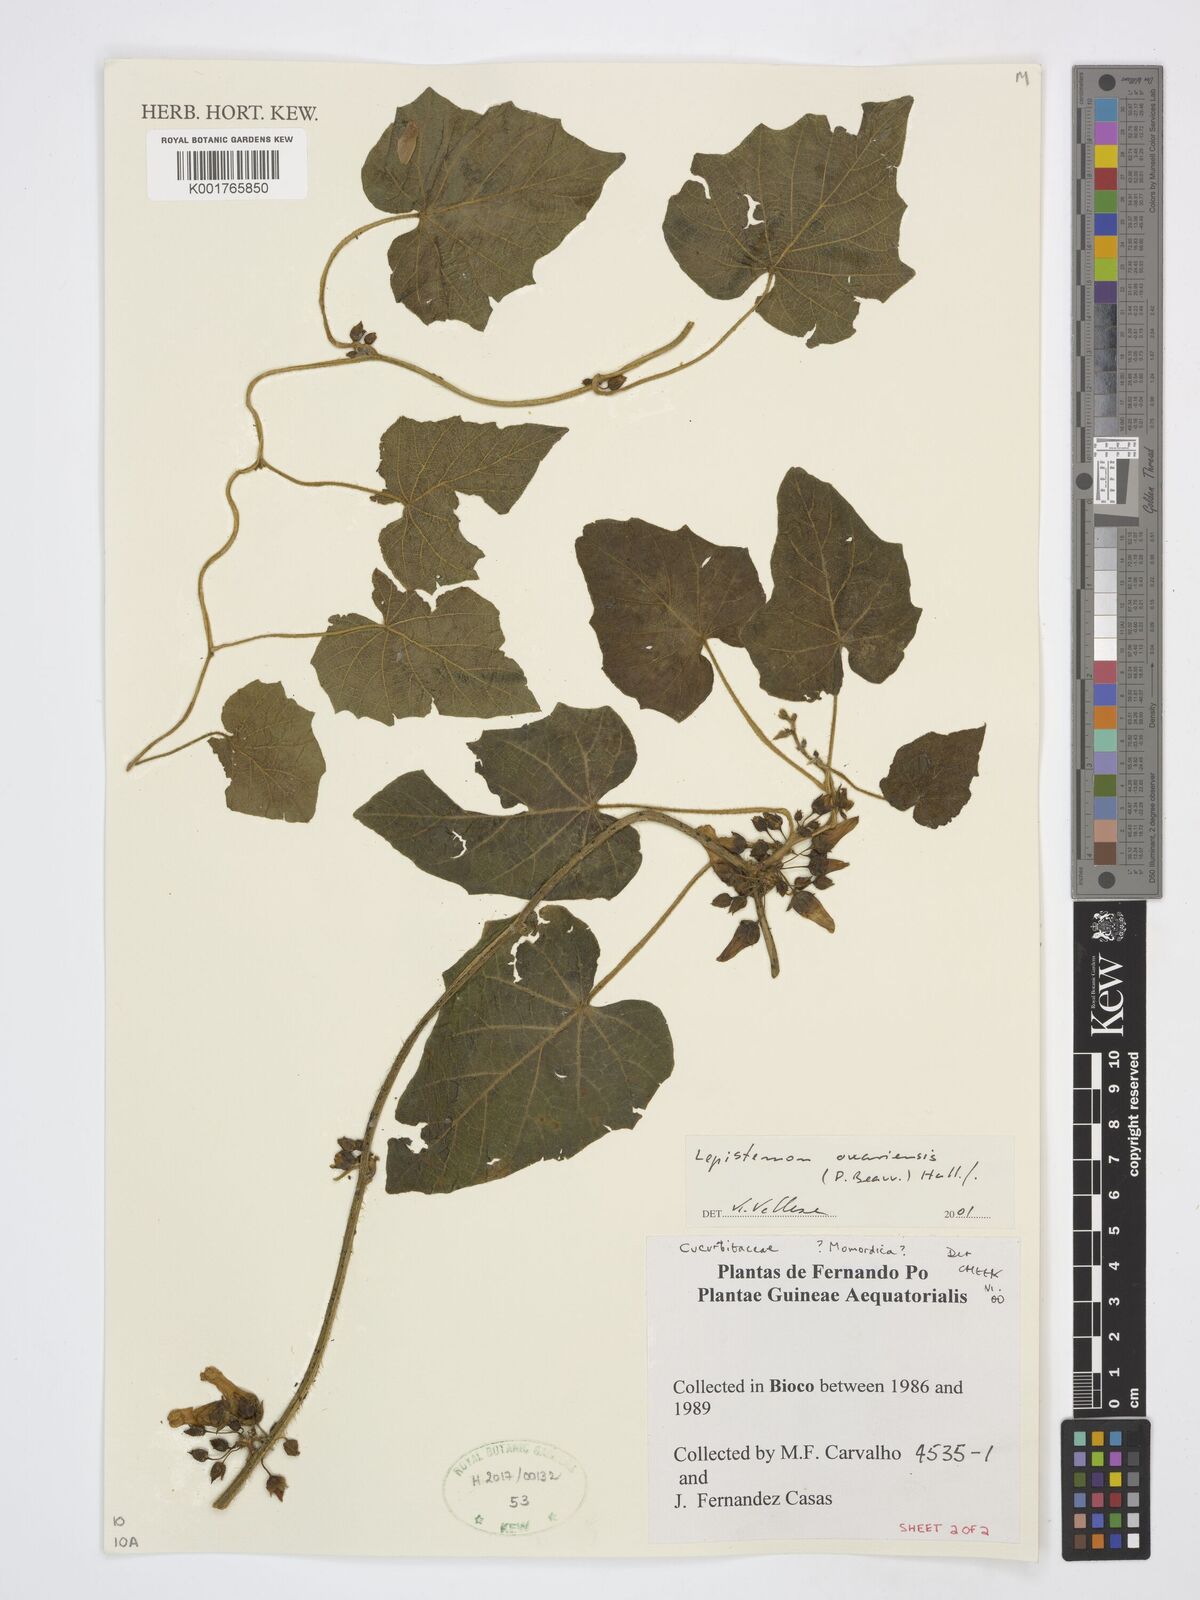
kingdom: Plantae
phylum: Tracheophyta
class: Magnoliopsida
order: Solanales
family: Convolvulaceae
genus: Lepistemon
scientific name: Lepistemon owariensis
